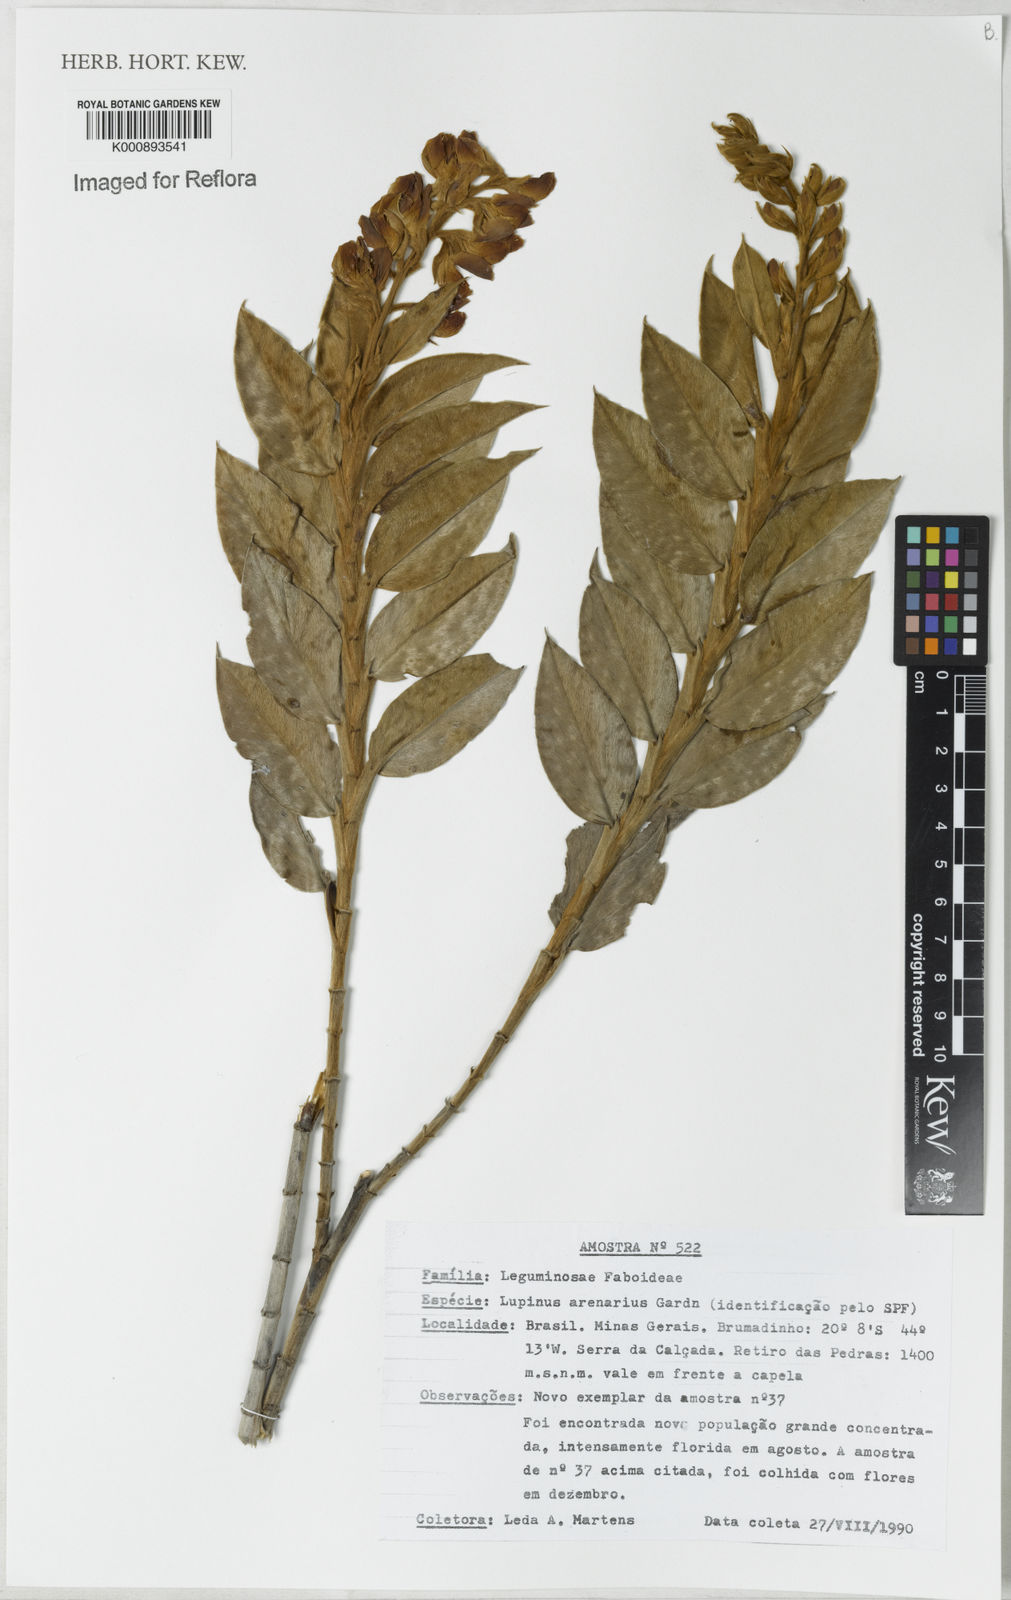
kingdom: Plantae
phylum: Tracheophyta
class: Magnoliopsida
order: Fabales
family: Fabaceae
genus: Lupinus
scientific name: Lupinus arenarius
